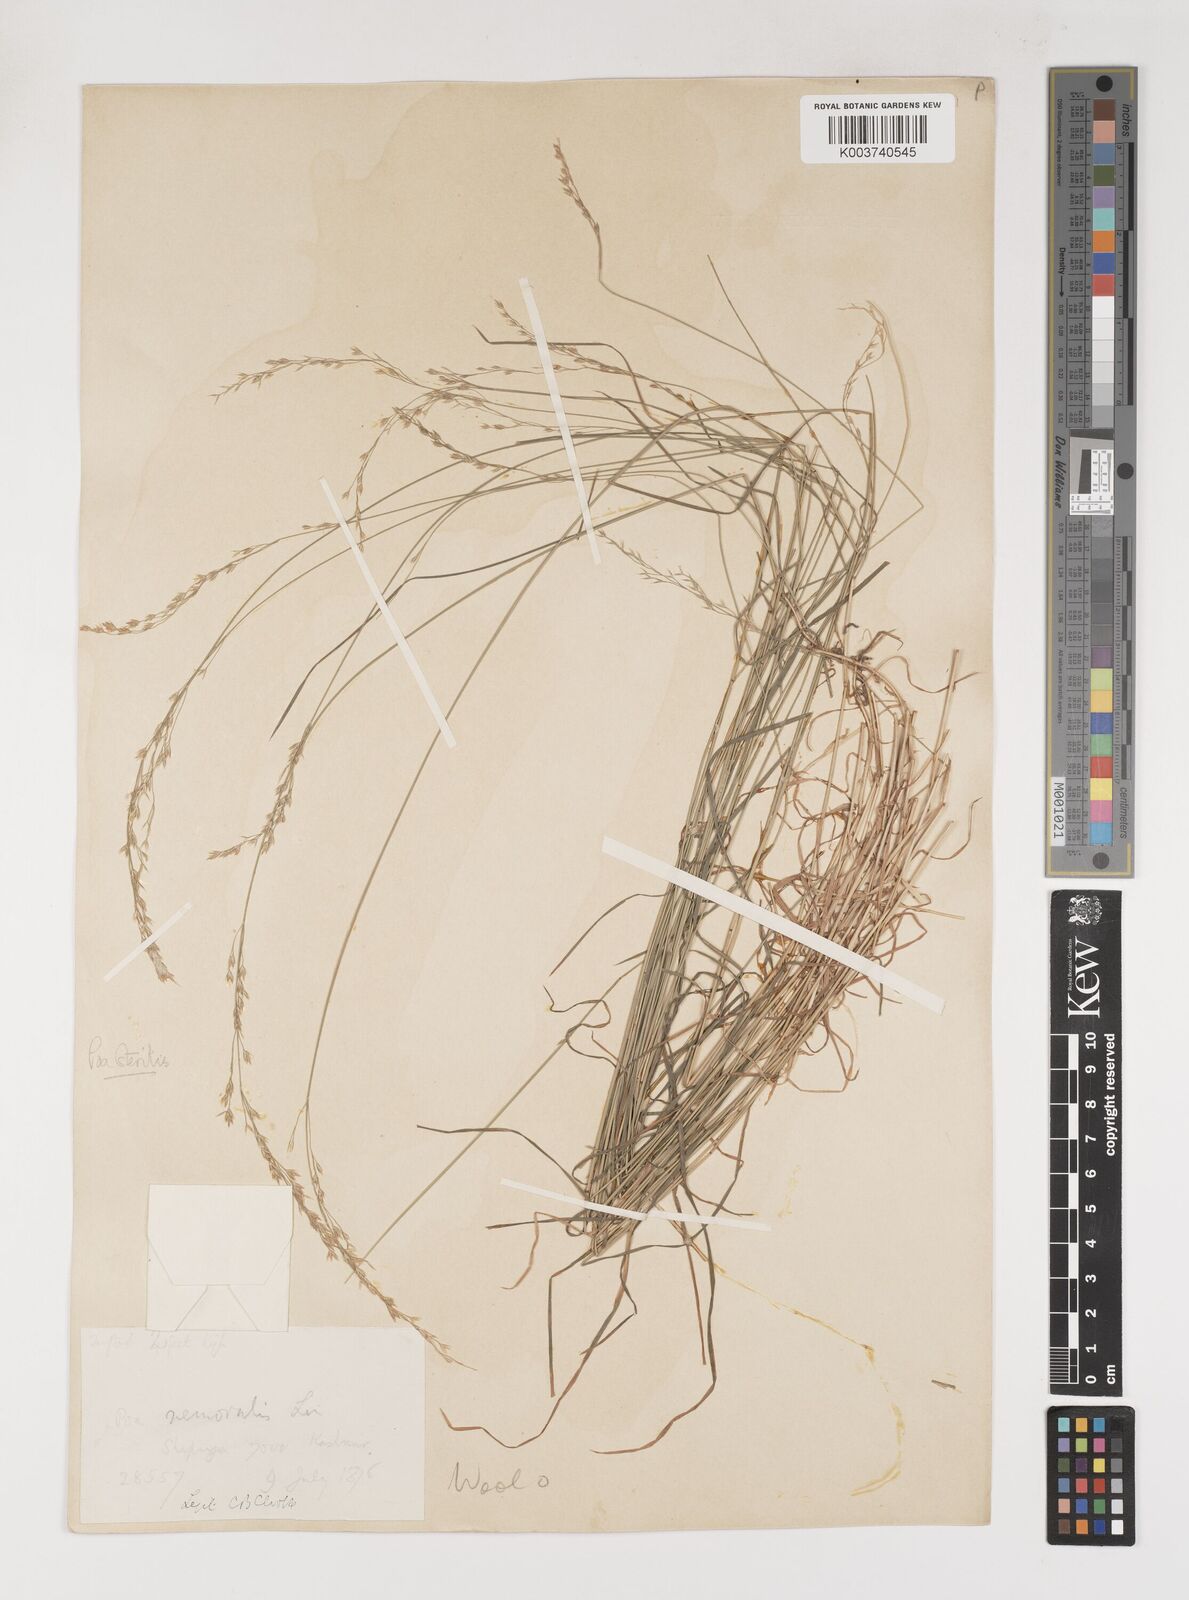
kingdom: Plantae
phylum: Tracheophyta
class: Liliopsida
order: Poales
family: Poaceae
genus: Poa
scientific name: Poa sterilis
